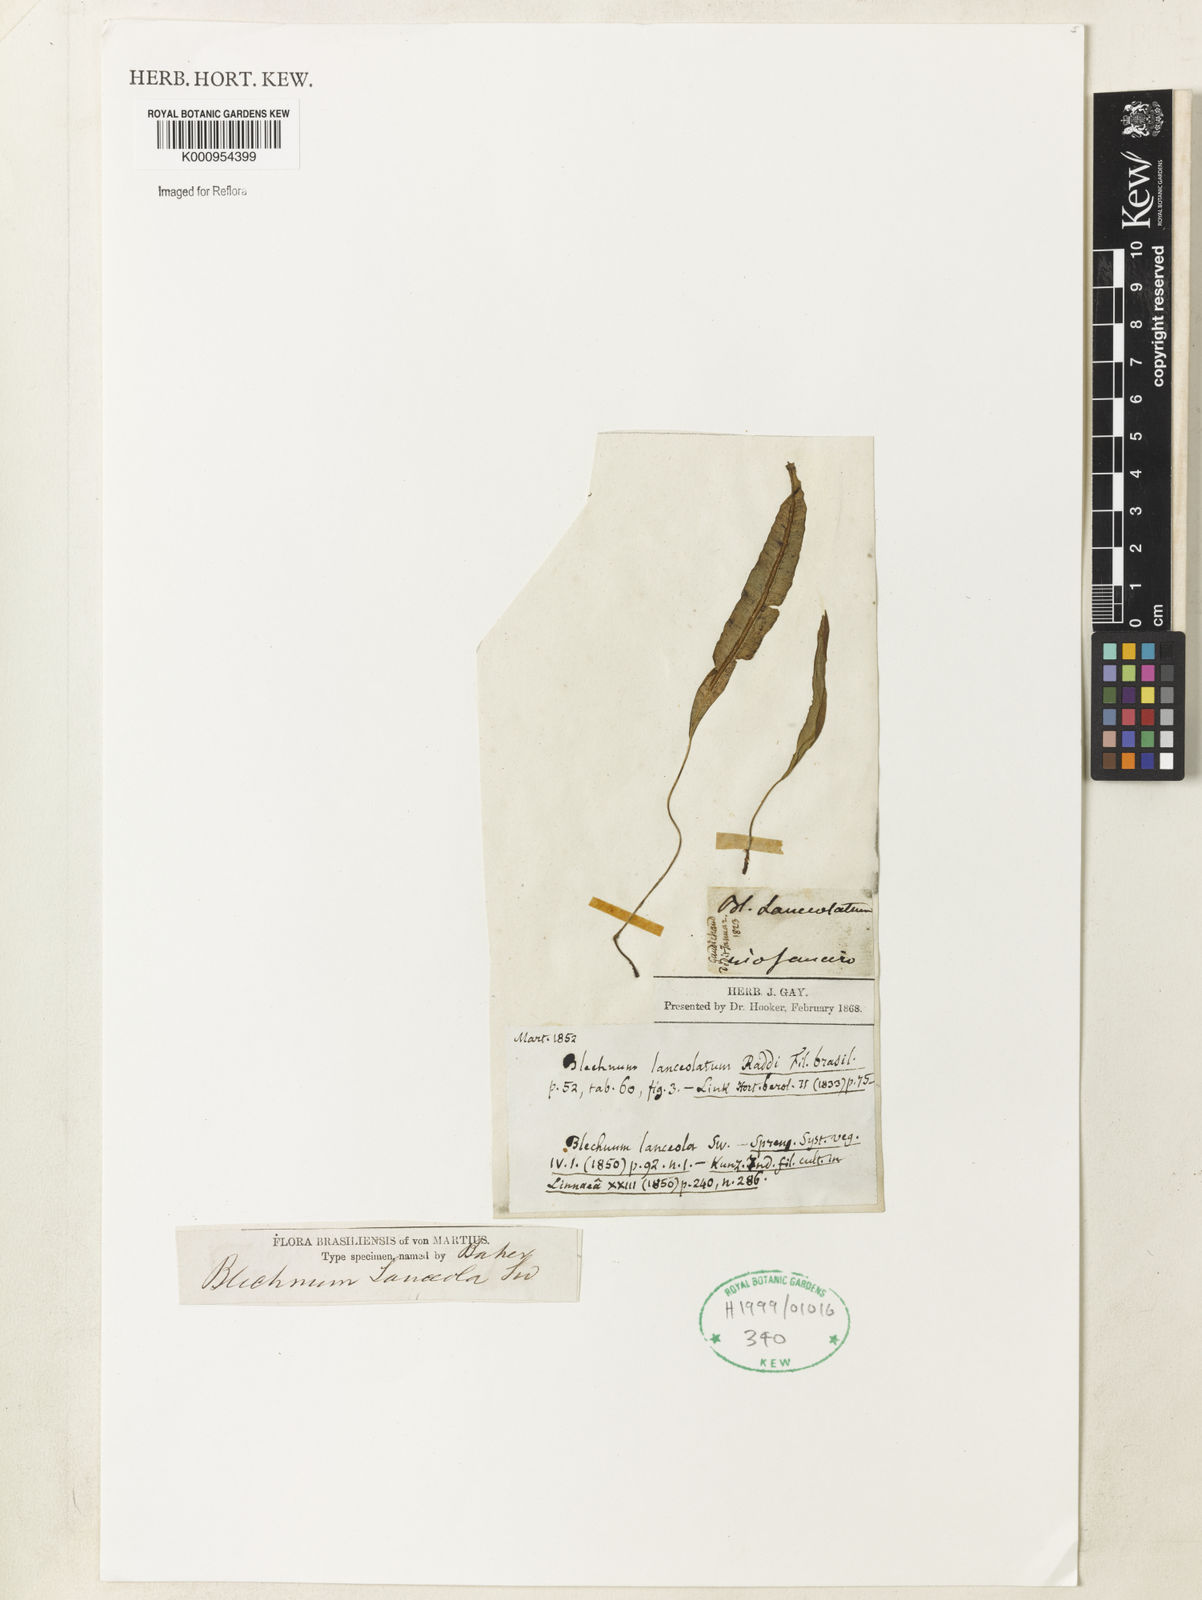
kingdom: Plantae
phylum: Tracheophyta
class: Polypodiopsida
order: Polypodiales
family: Blechnaceae
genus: Blechnum
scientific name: Blechnum lanceola
